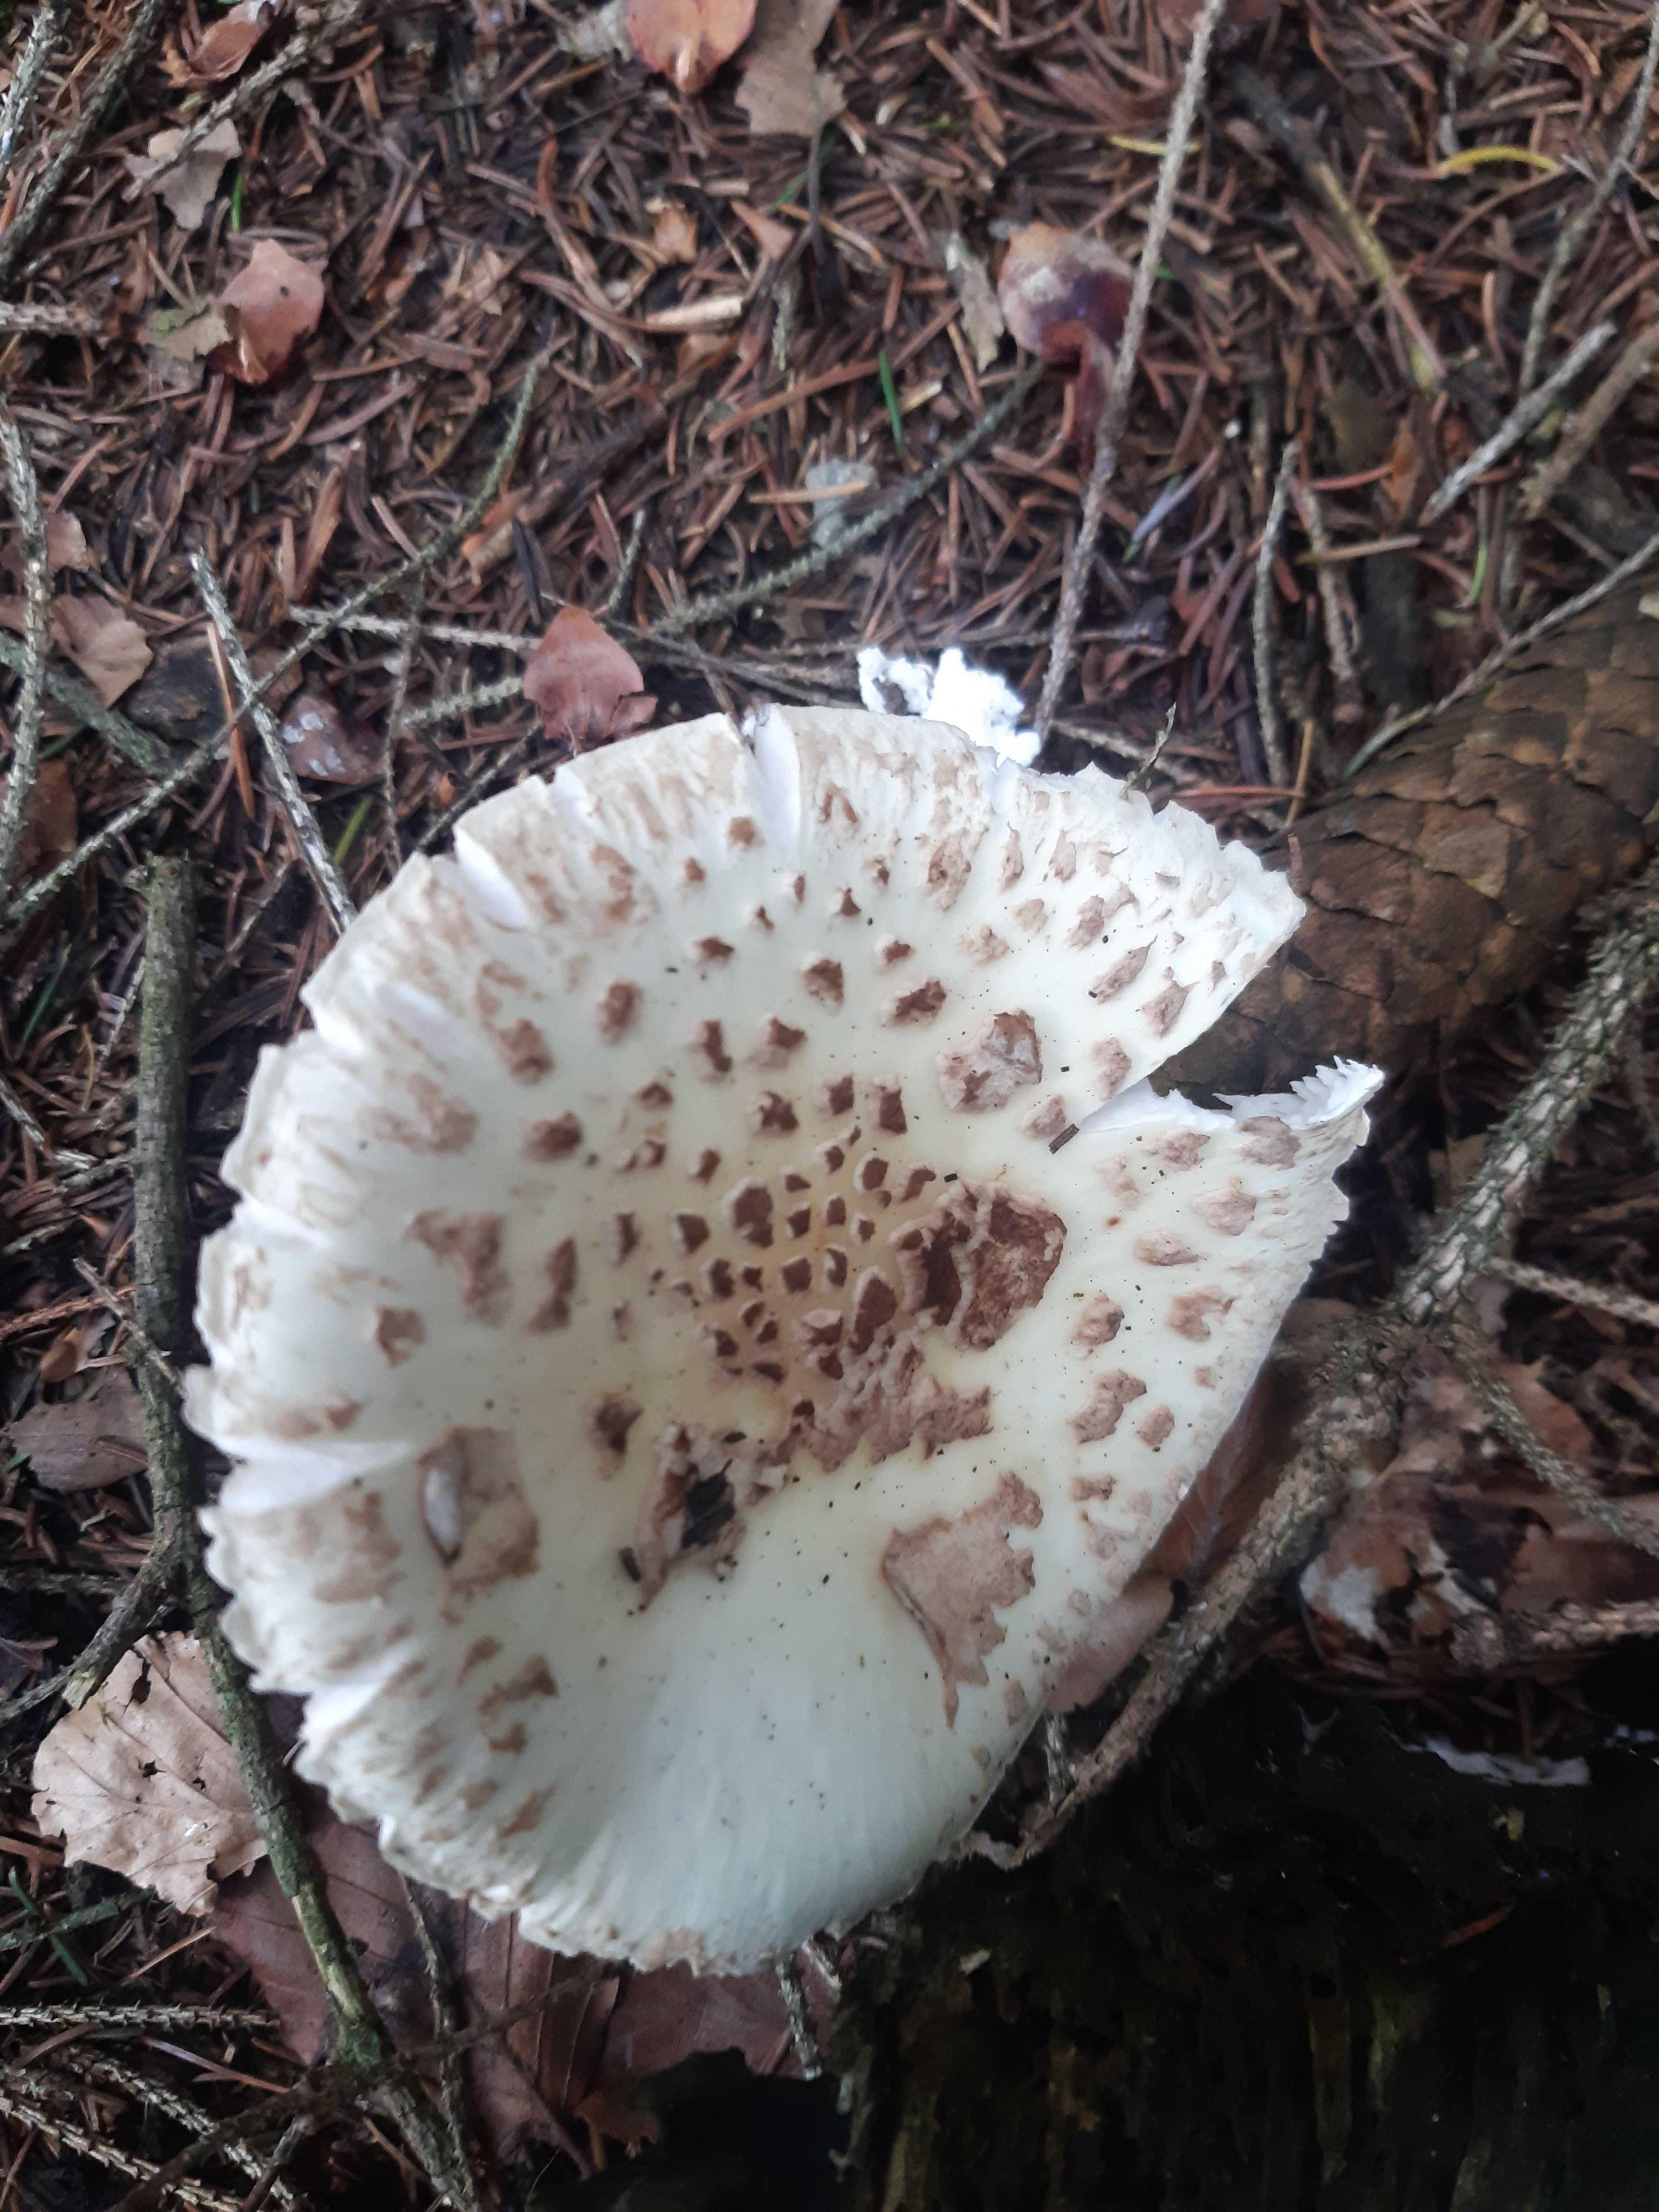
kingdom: Fungi
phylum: Basidiomycota
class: Agaricomycetes
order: Agaricales
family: Amanitaceae
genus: Amanita
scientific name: Amanita citrina
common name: kugleknoldet fluesvamp
